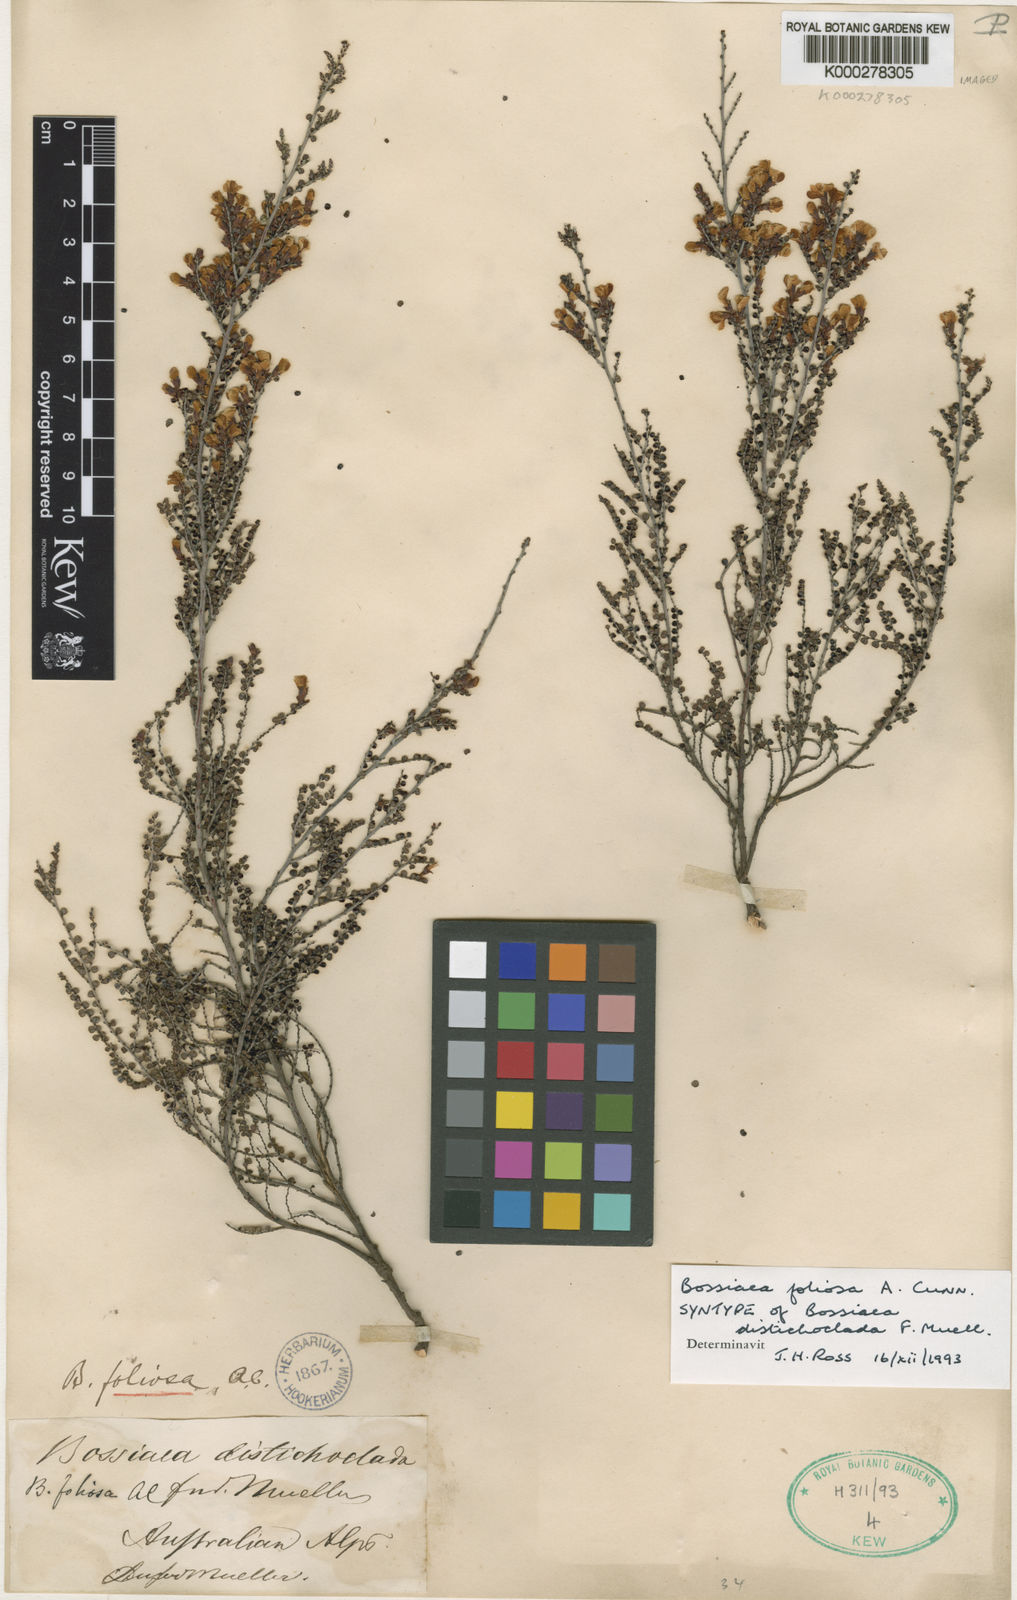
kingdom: Plantae
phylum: Tracheophyta
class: Magnoliopsida
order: Fabales
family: Fabaceae
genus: Bossiaea
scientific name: Bossiaea foliosa
